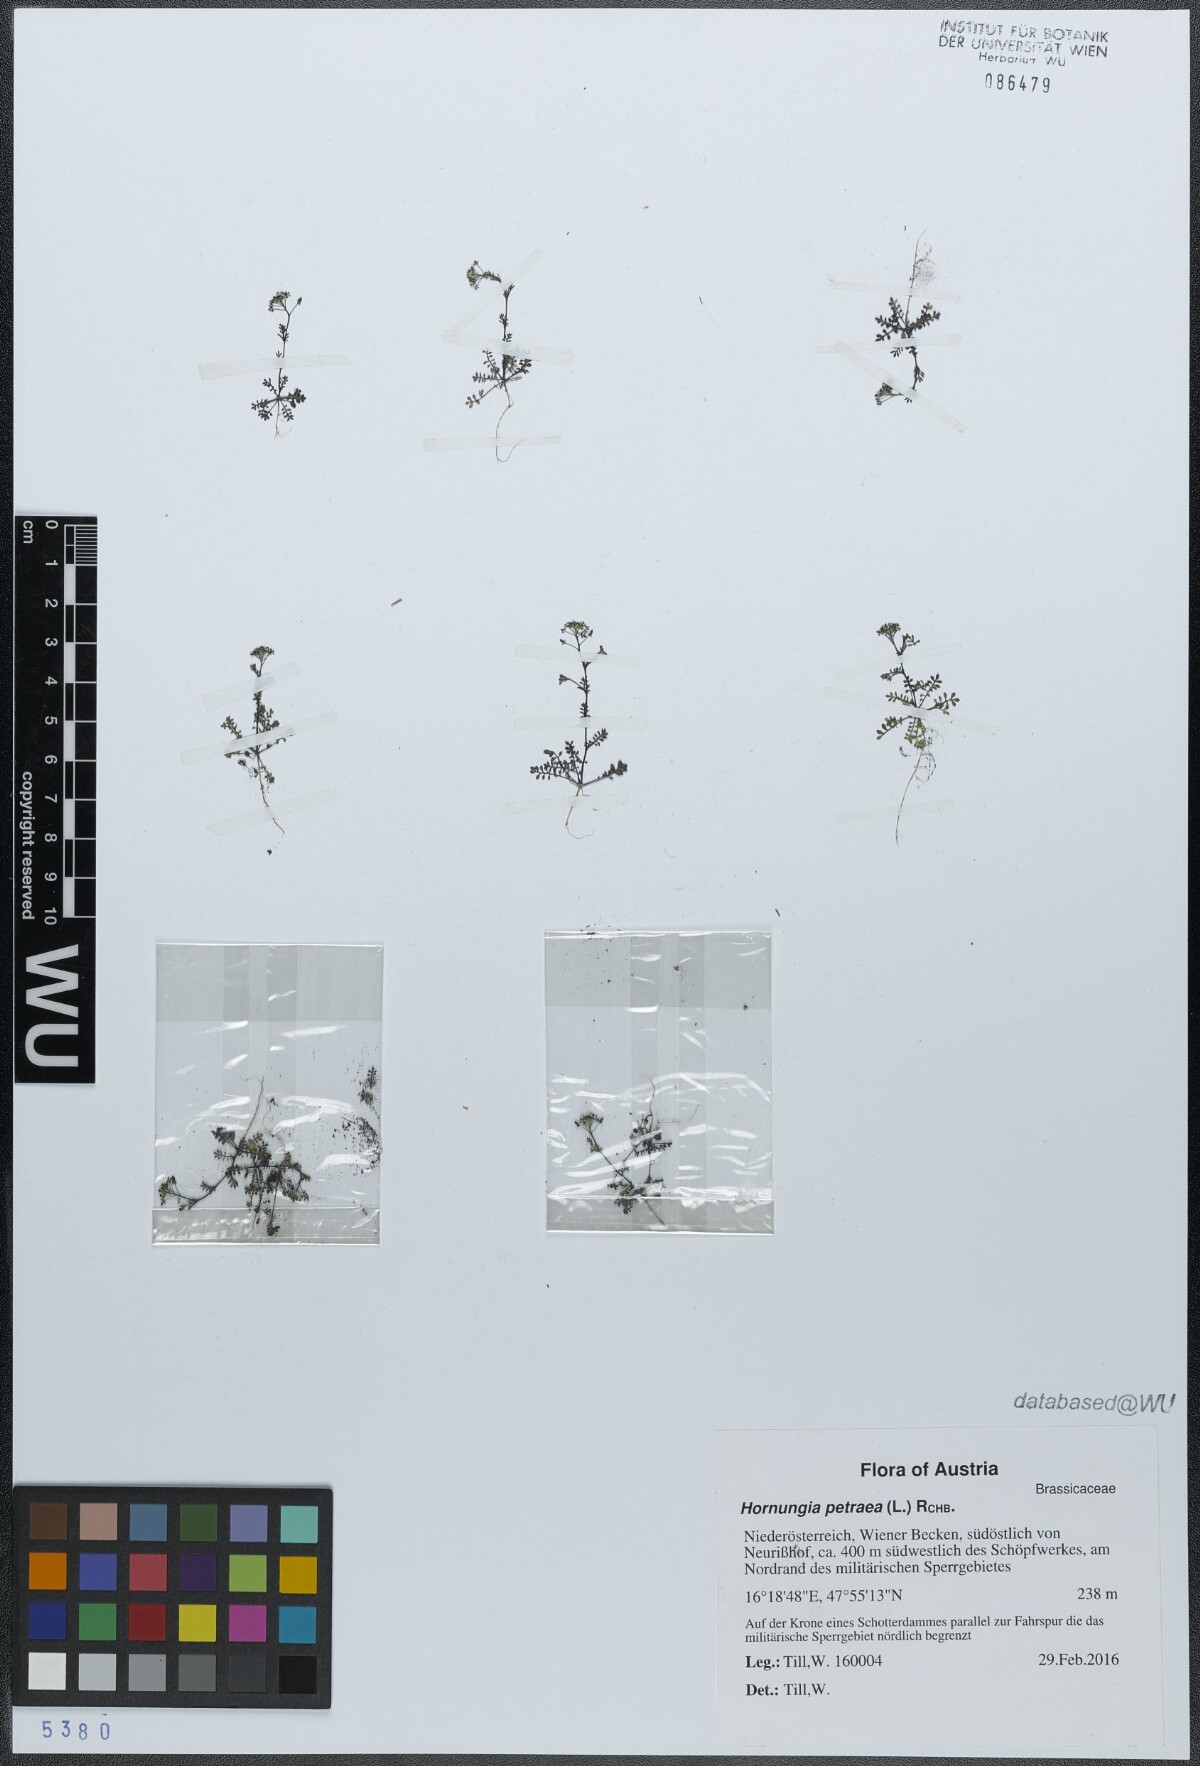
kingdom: Plantae
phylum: Tracheophyta
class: Magnoliopsida
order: Brassicales
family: Brassicaceae
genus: Hornungia
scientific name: Hornungia petraea
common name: Hutchinsia
